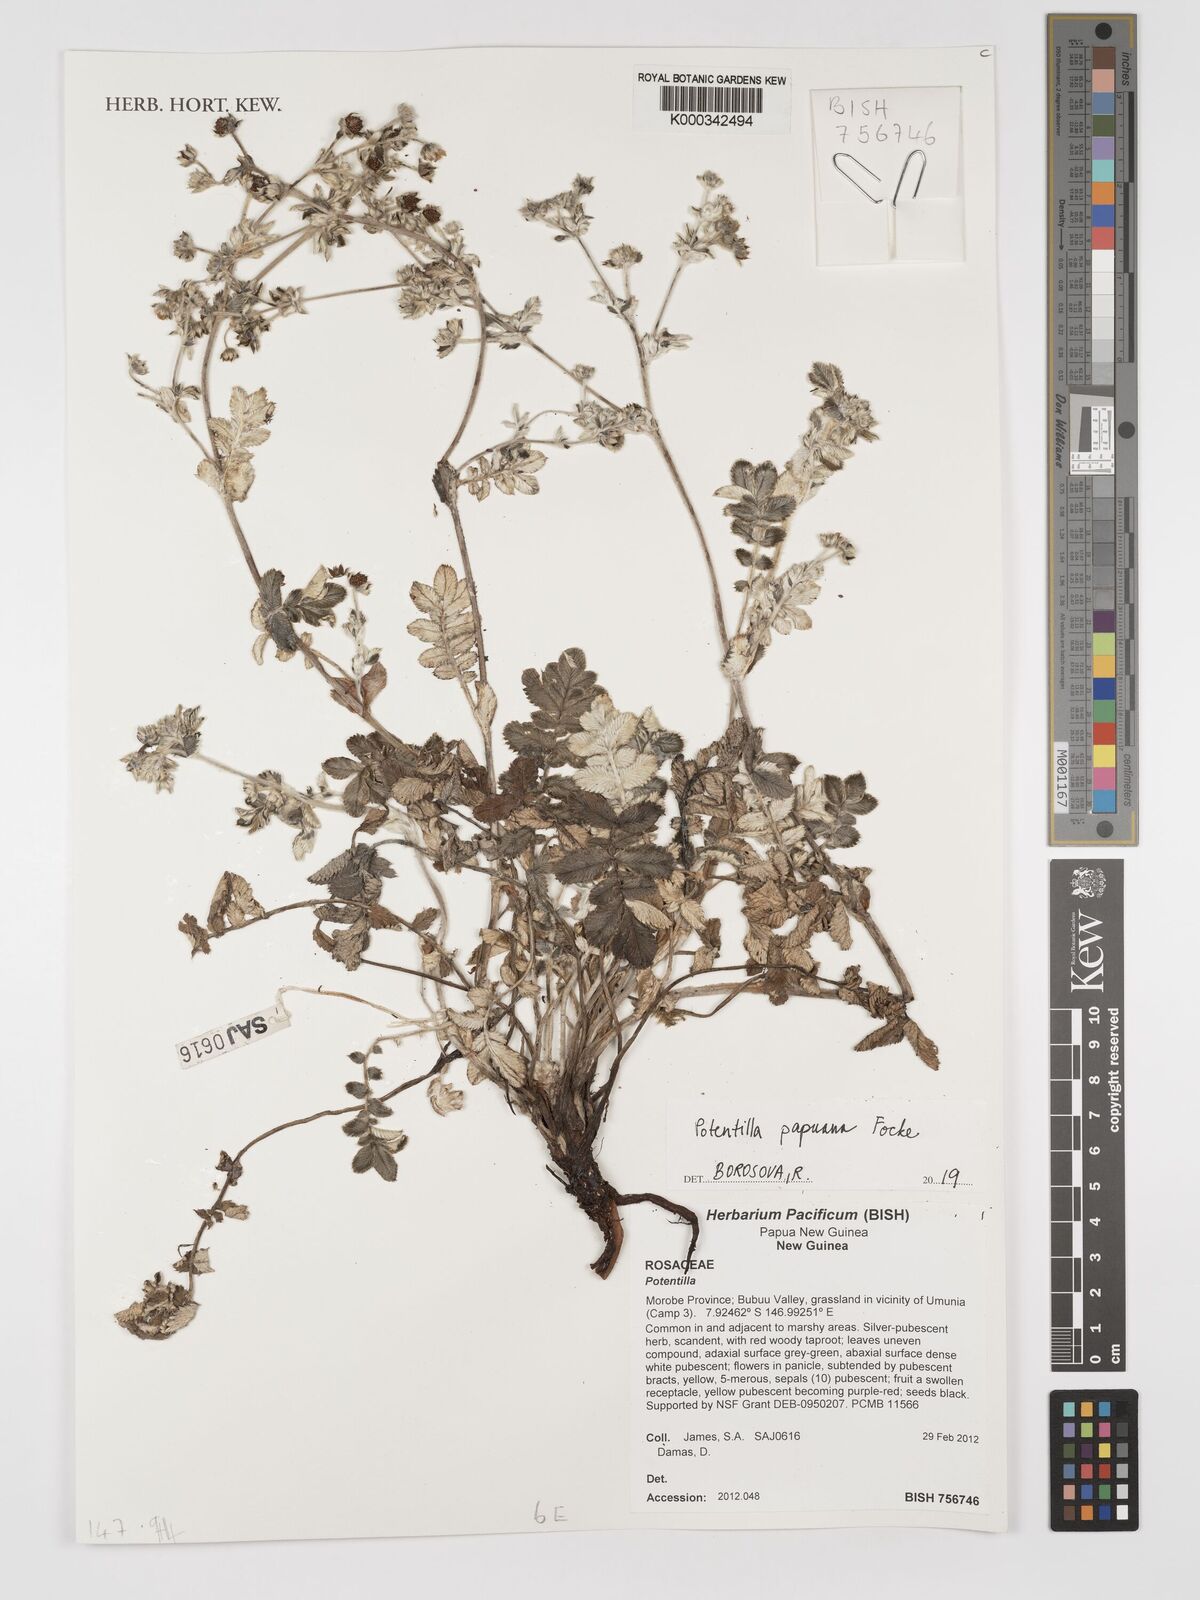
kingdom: Plantae
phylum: Tracheophyta
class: Magnoliopsida
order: Rosales
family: Rosaceae
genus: Argentina
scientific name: Argentina papuana
